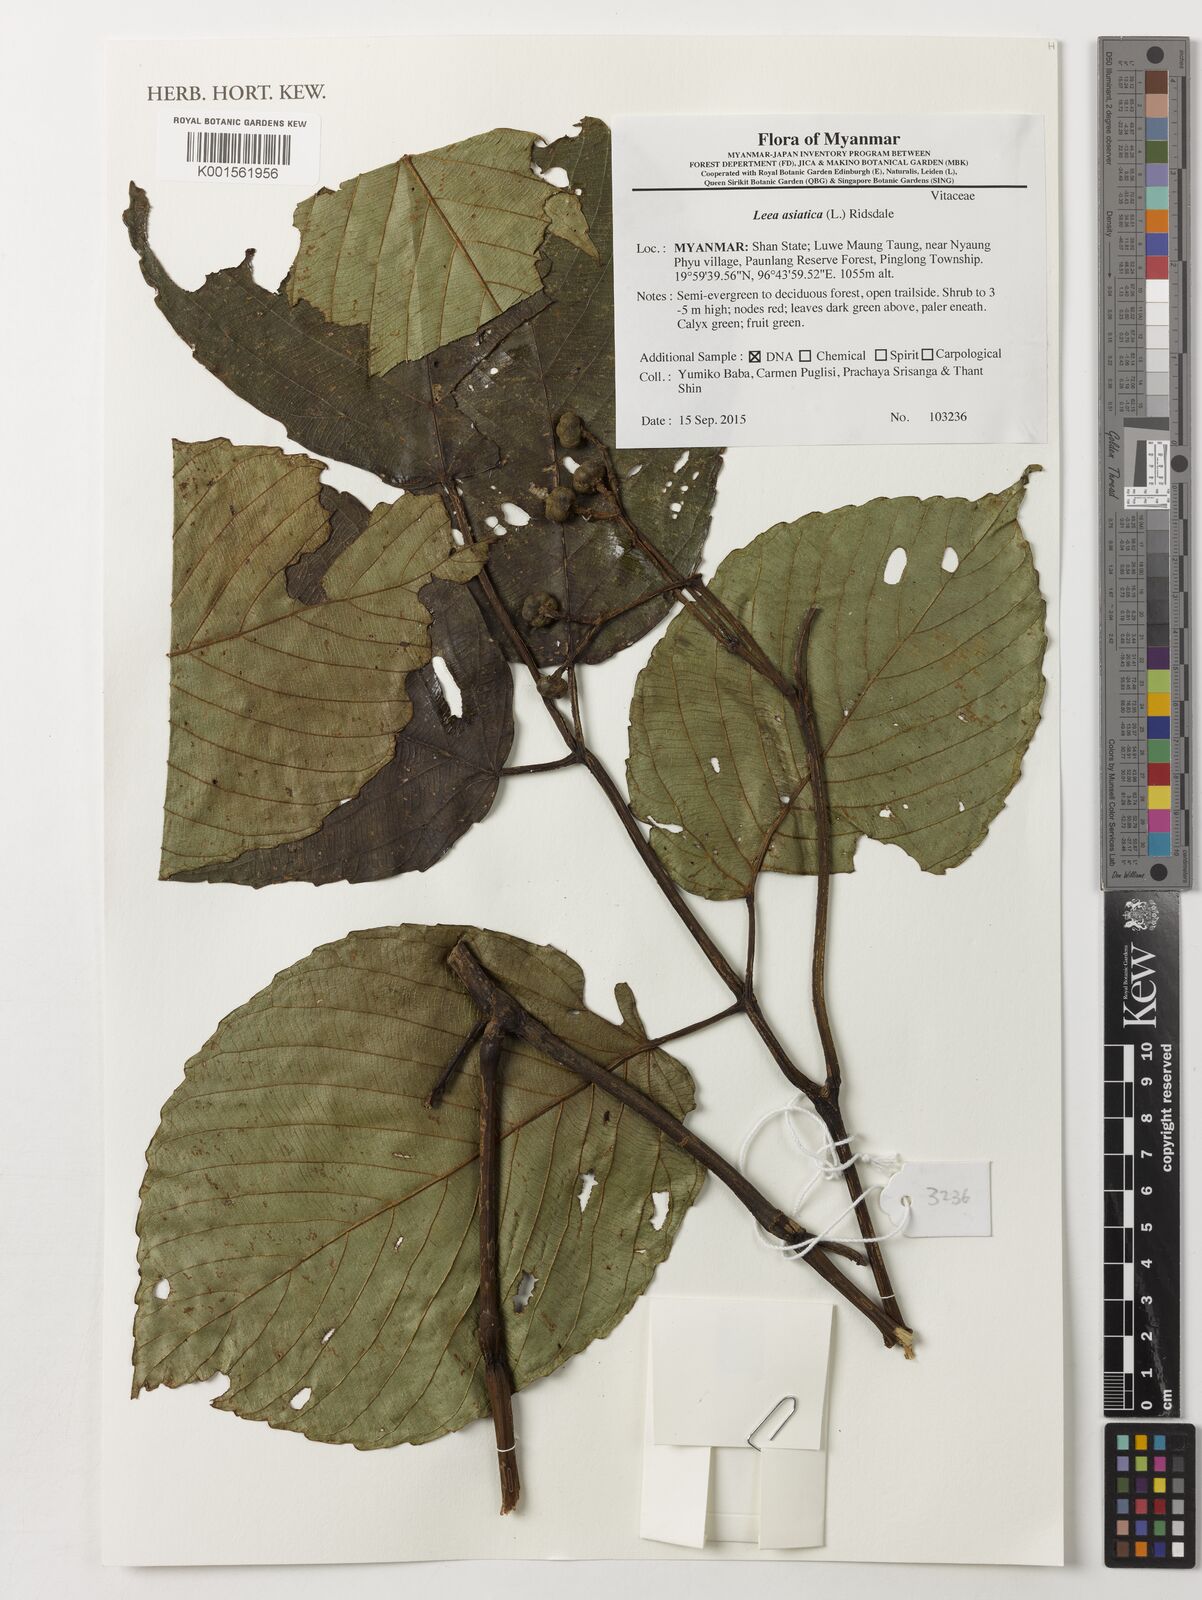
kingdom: Plantae
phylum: Tracheophyta
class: Magnoliopsida
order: Vitales
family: Vitaceae
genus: Leea
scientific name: Leea asiatica
